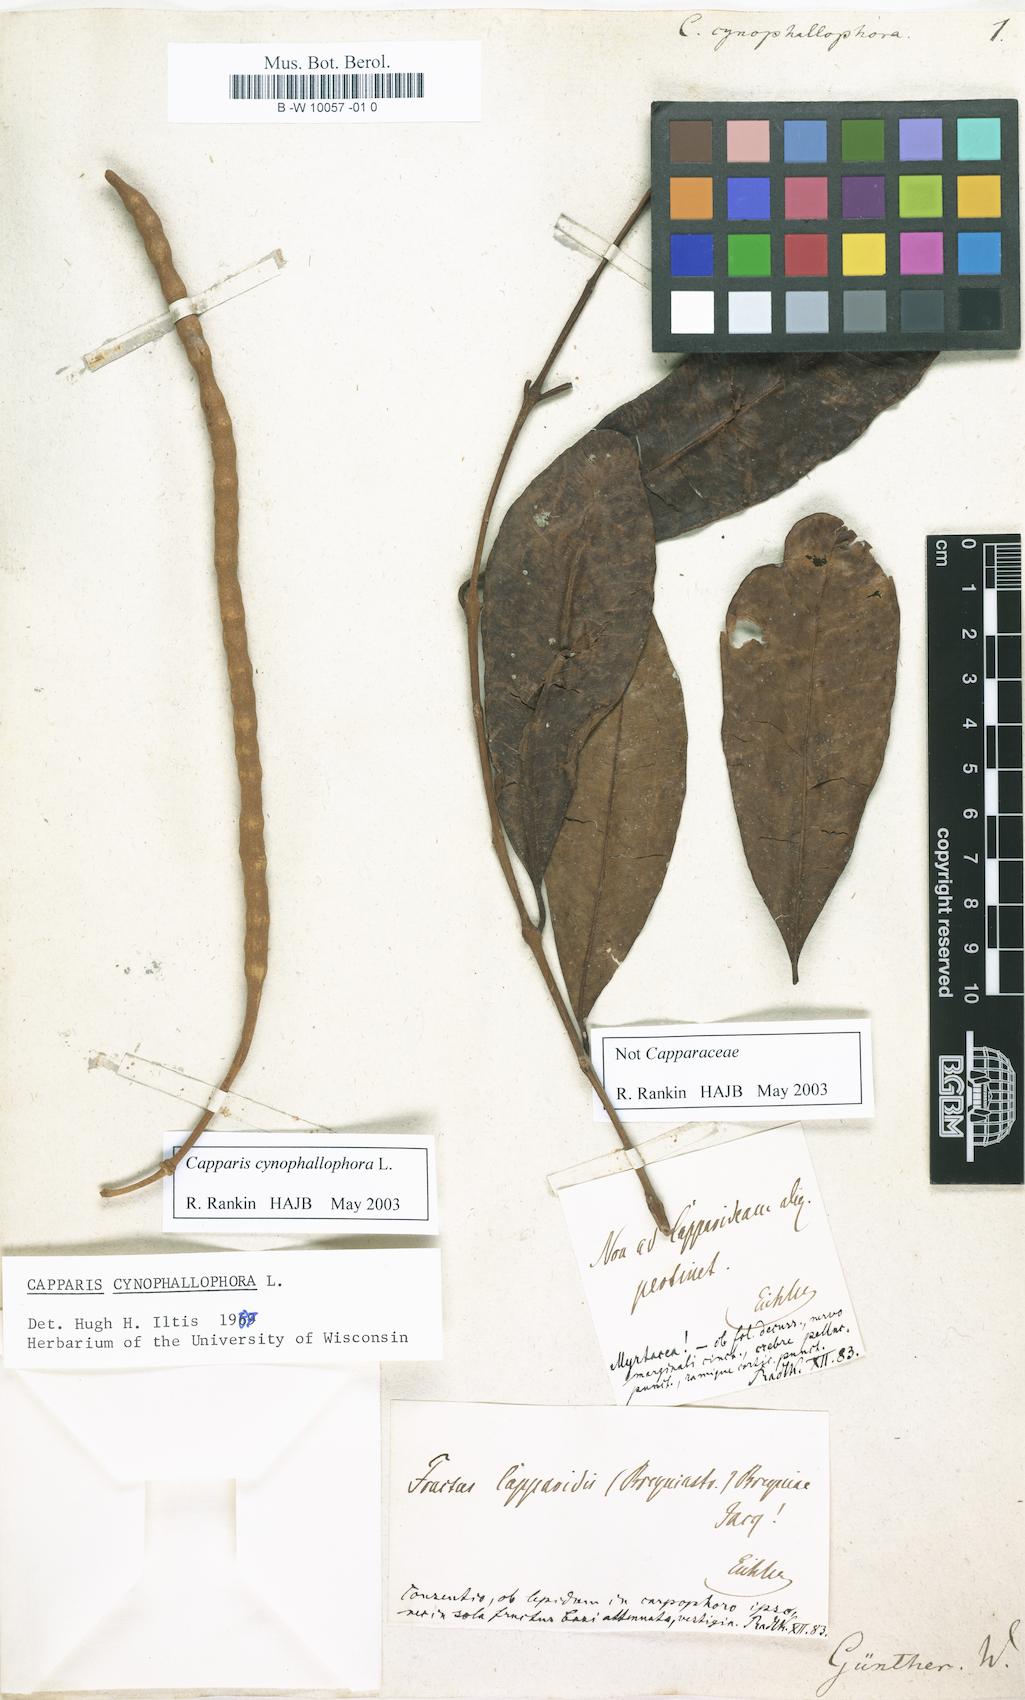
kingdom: Plantae
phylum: Tracheophyta
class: Magnoliopsida
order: Brassicales
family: Capparaceae
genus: Quadrella
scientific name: Quadrella cynophallophora
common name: Black willow
